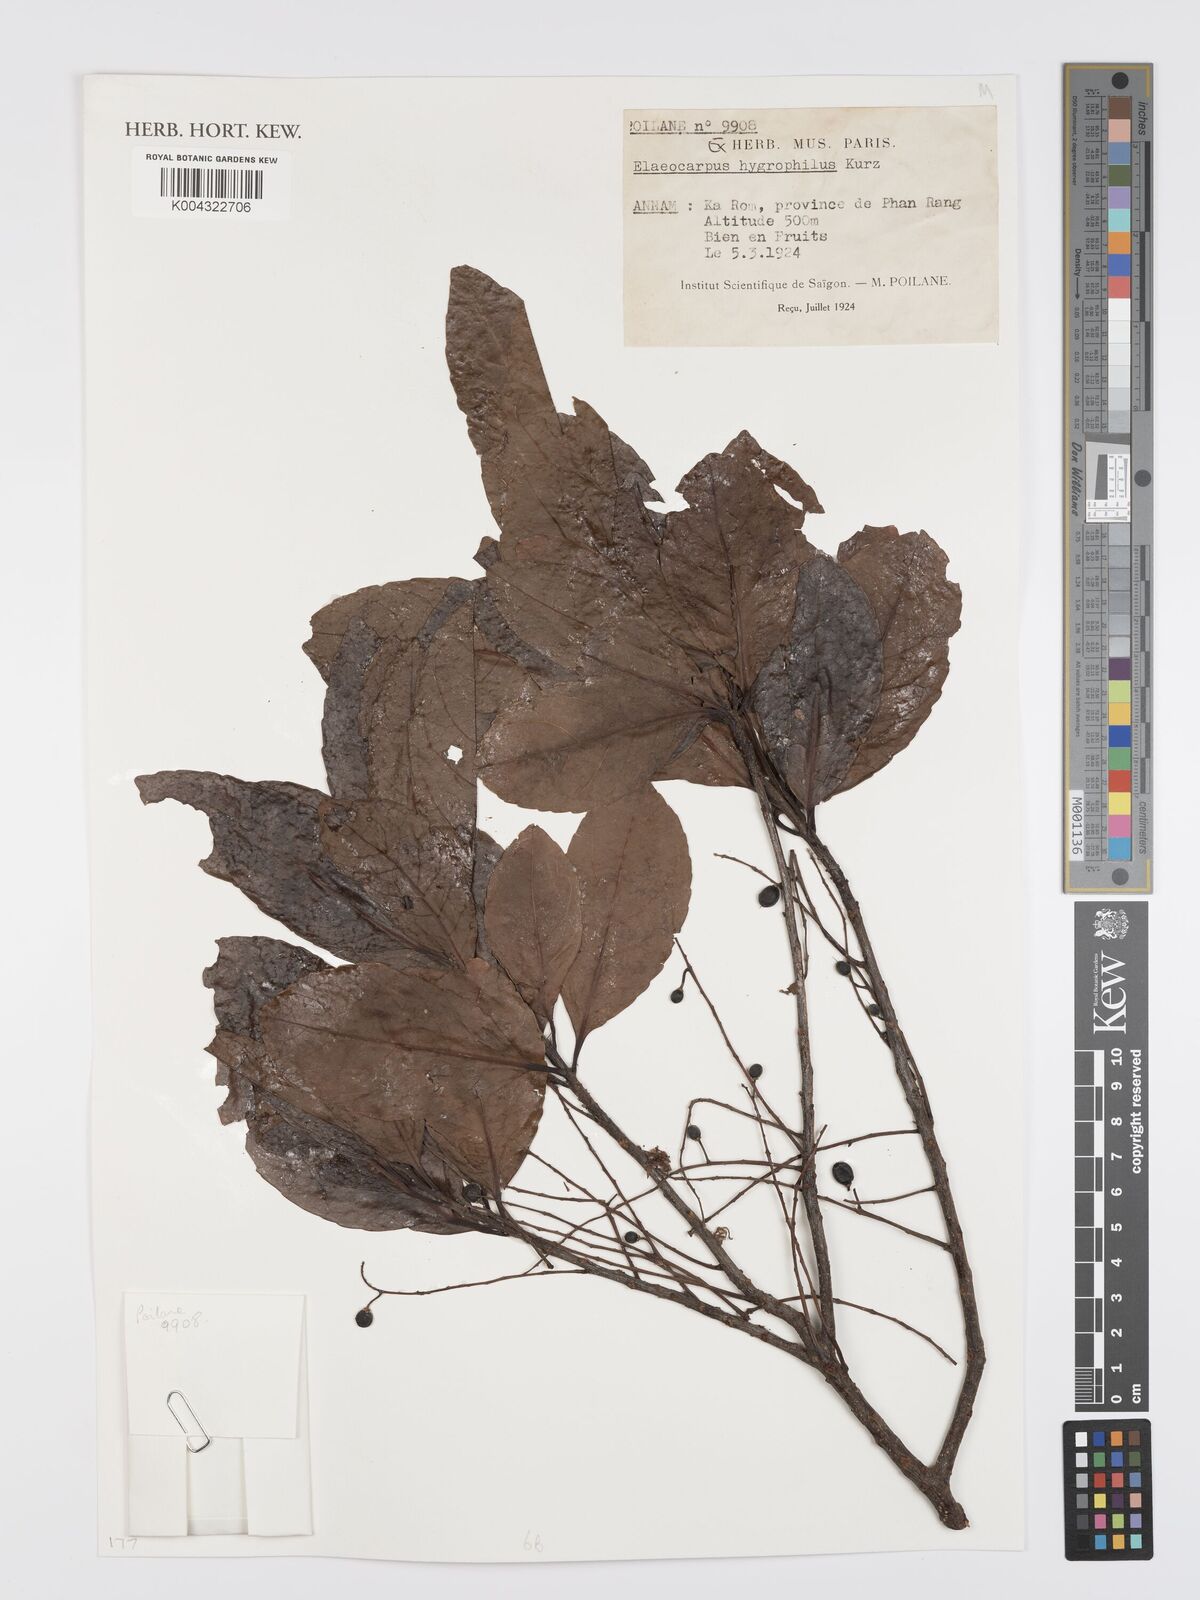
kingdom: Plantae
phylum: Tracheophyta
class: Magnoliopsida
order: Oxalidales
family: Elaeocarpaceae
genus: Elaeocarpus
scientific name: Elaeocarpus hygrophilus
